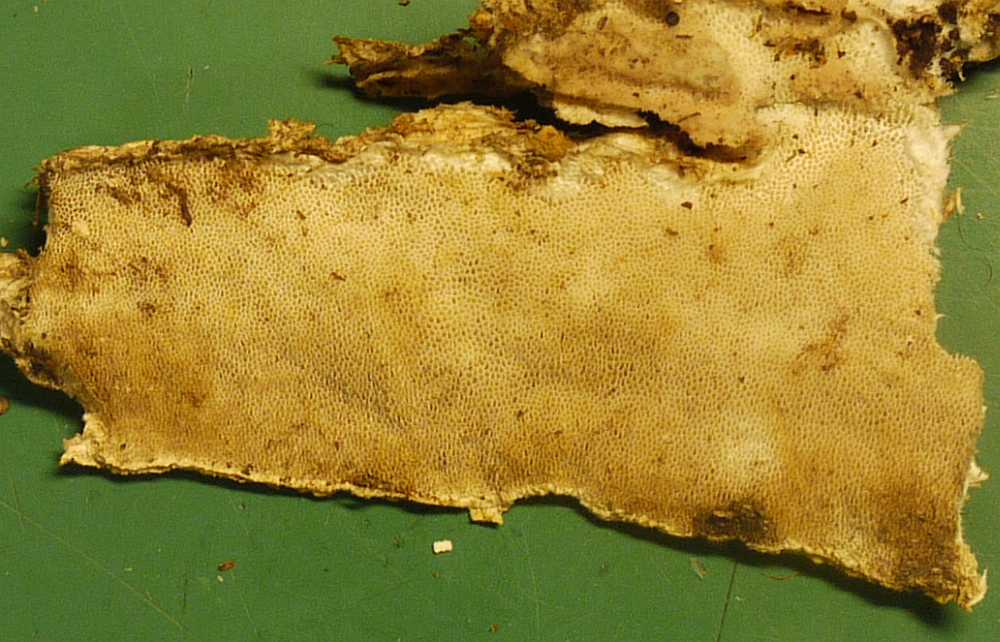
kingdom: Fungi
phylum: Basidiomycota
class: Agaricomycetes
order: Polyporales
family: Gelatoporiaceae
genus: Cinereomyces
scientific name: Cinereomyces lindbladii
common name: almindelig gråporesvamp
